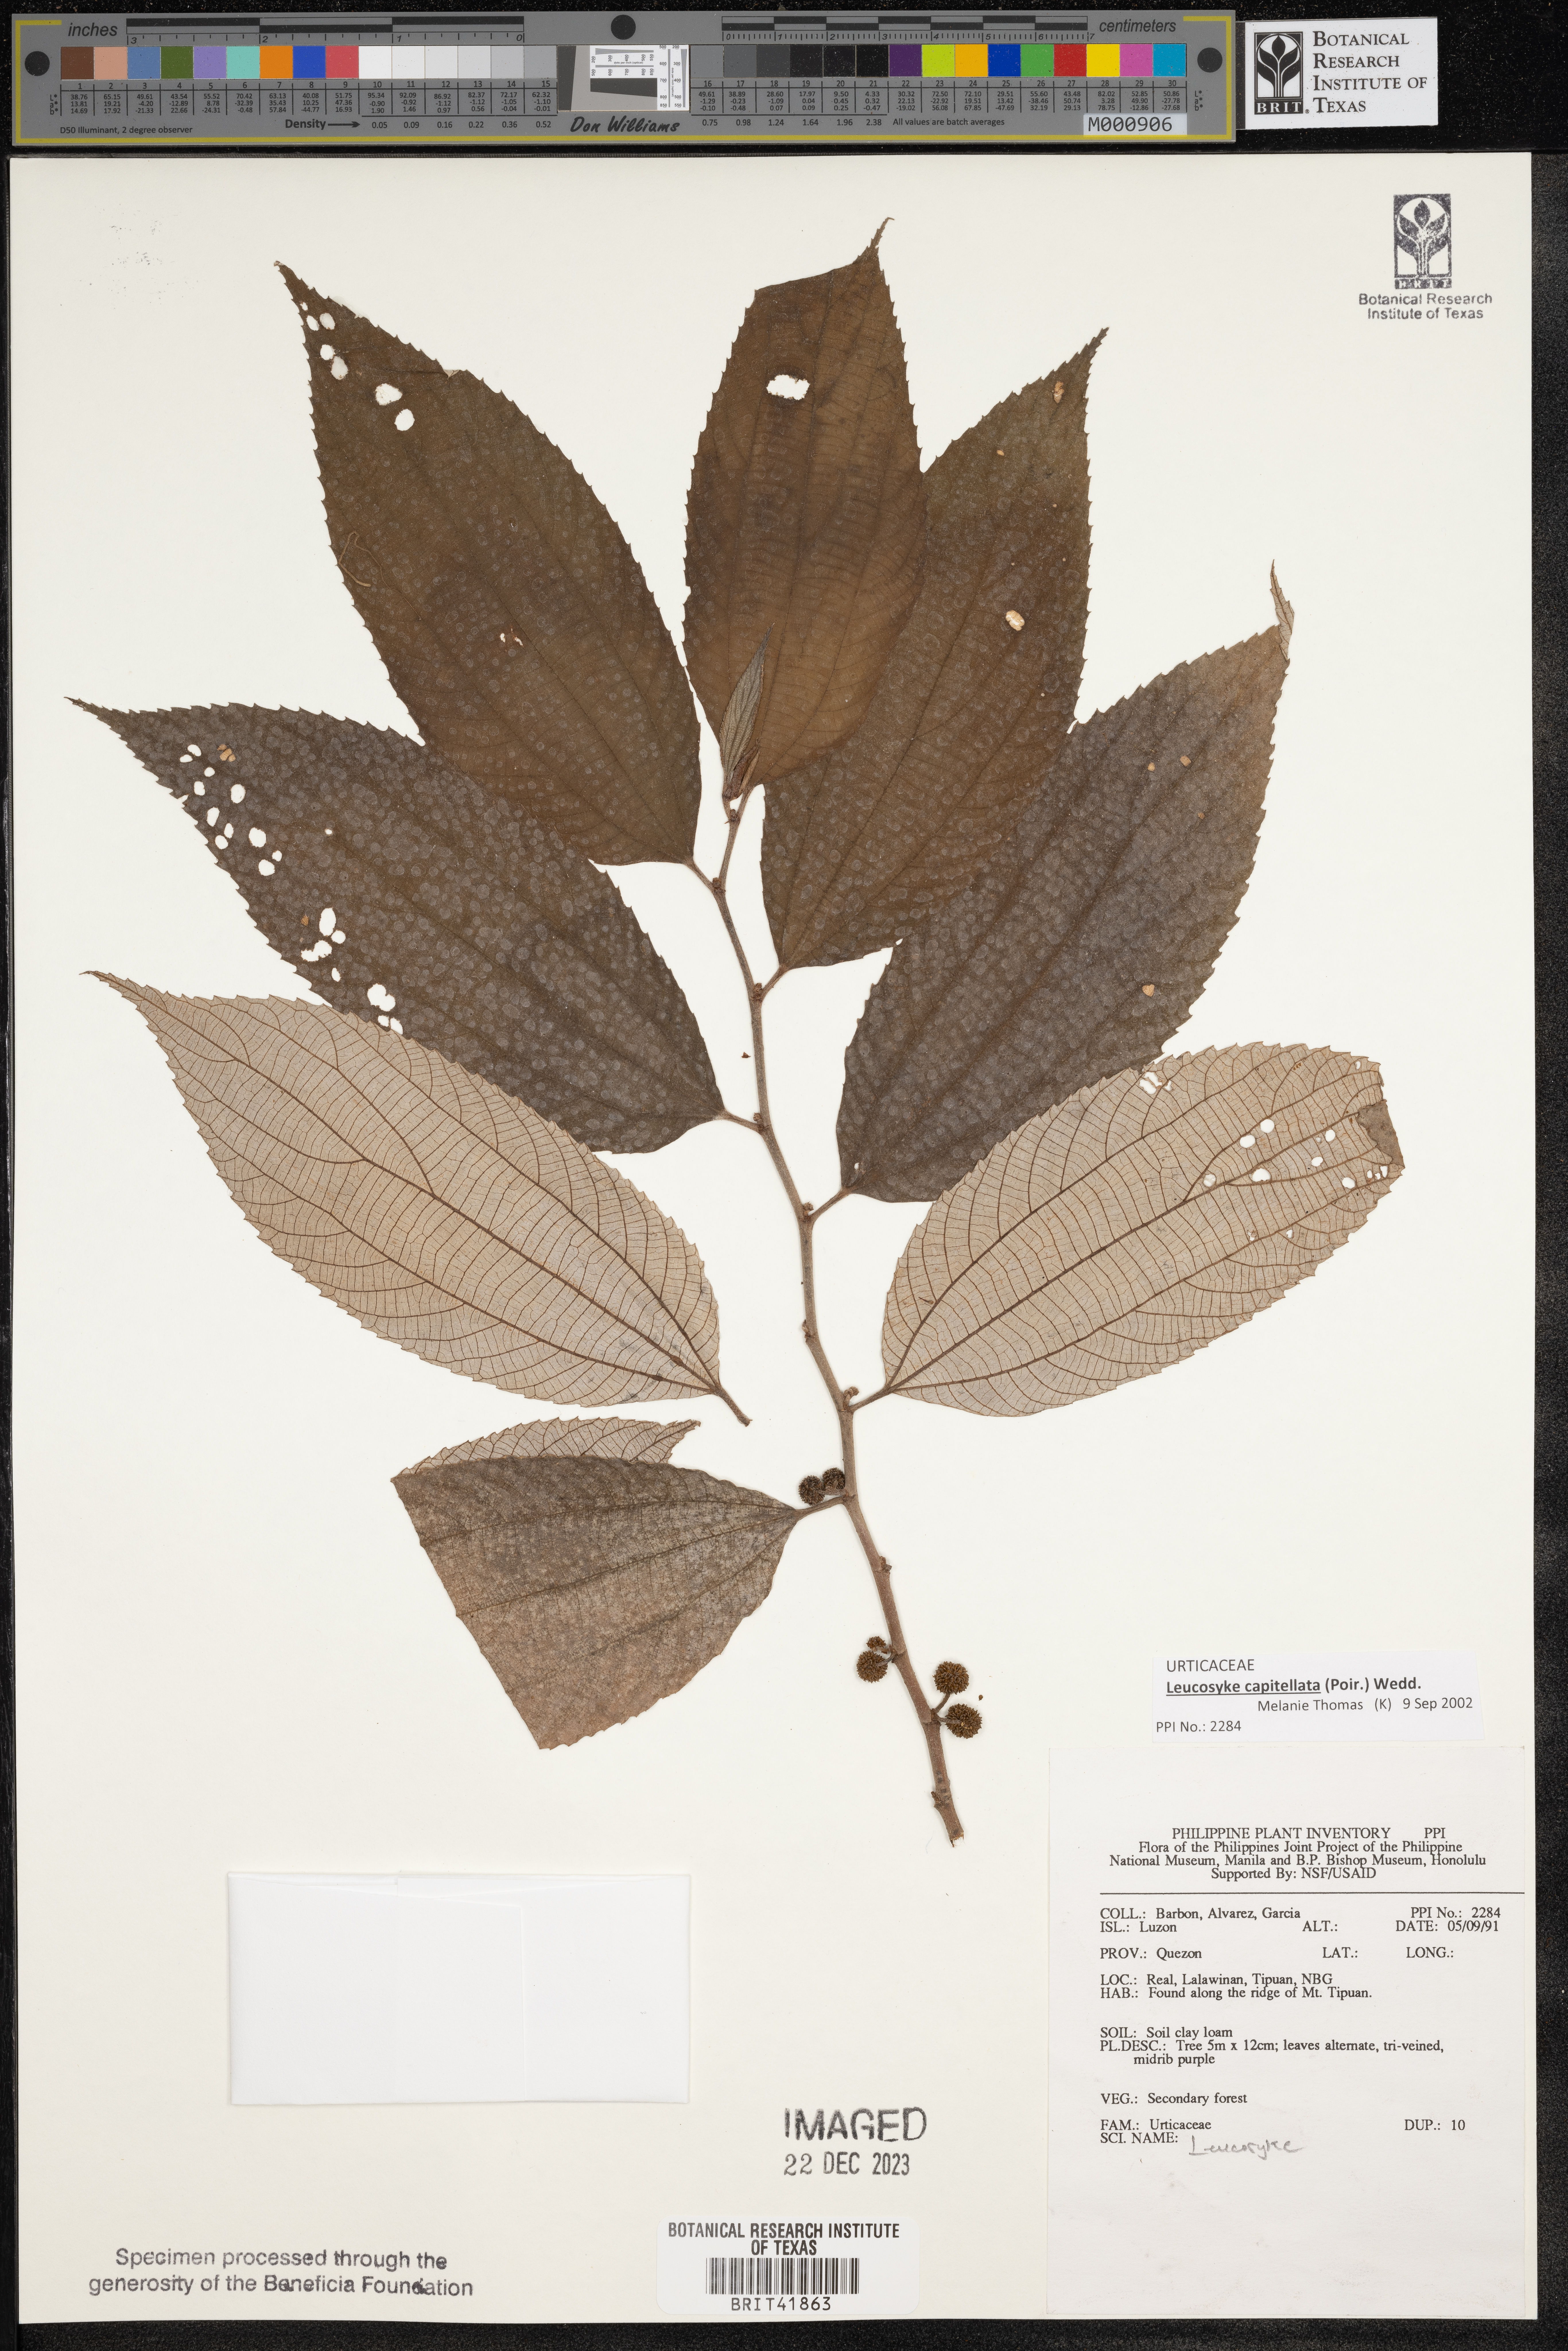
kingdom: Plantae
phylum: Tracheophyta
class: Magnoliopsida
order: Rosales
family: Urticaceae
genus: Leucosyke
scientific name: Leucosyke
